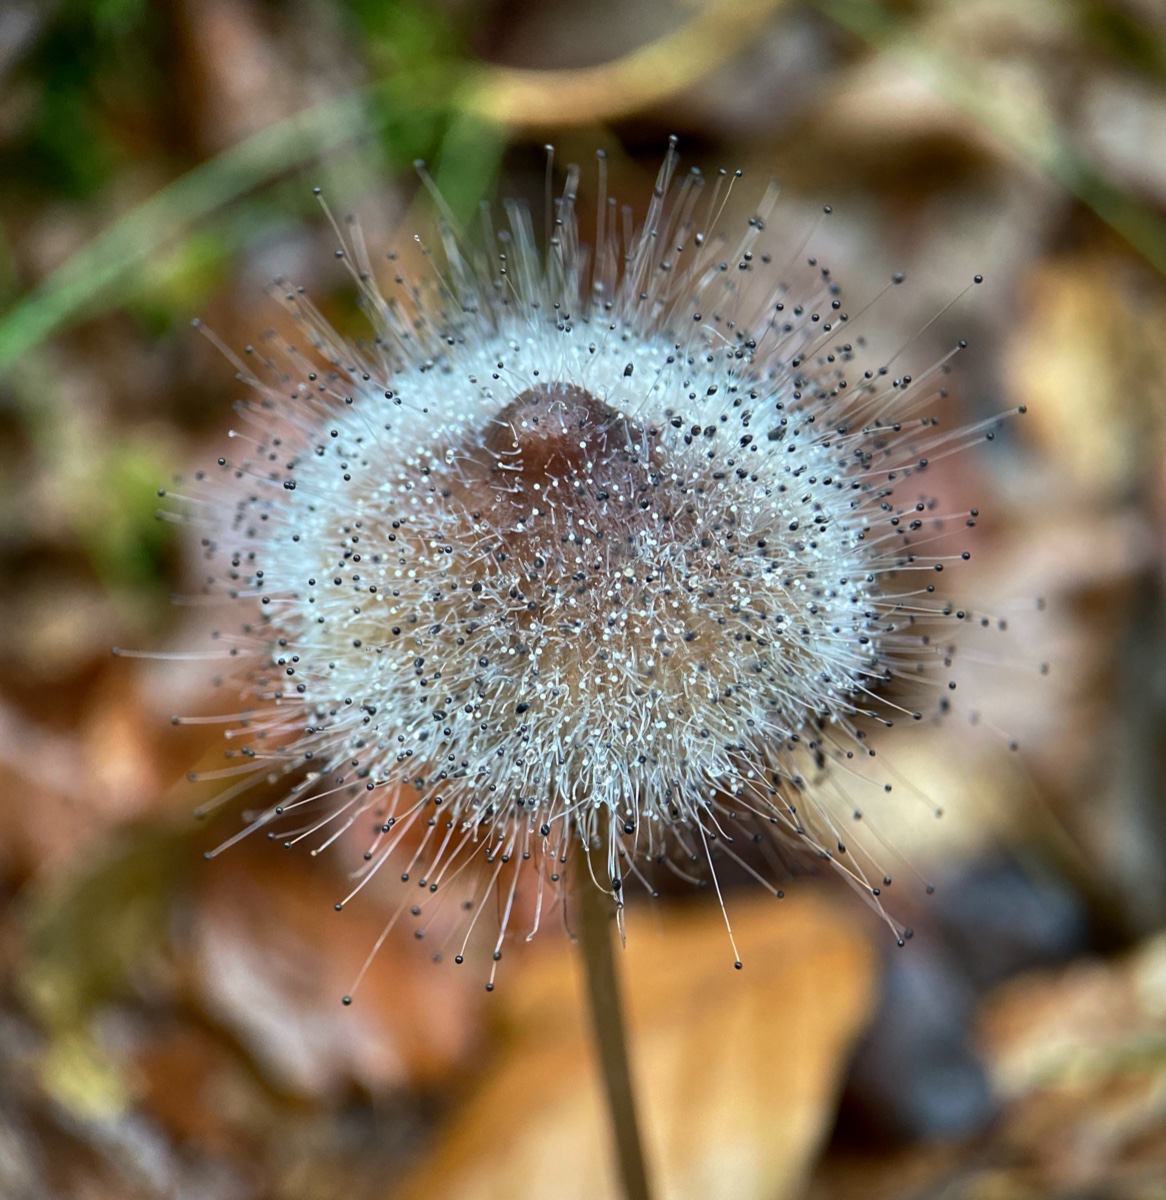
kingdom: Fungi
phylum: Mucoromycota
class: Mucoromycetes
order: Mucorales
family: Phycomycetaceae
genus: Spinellus
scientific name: Spinellus fusiger
